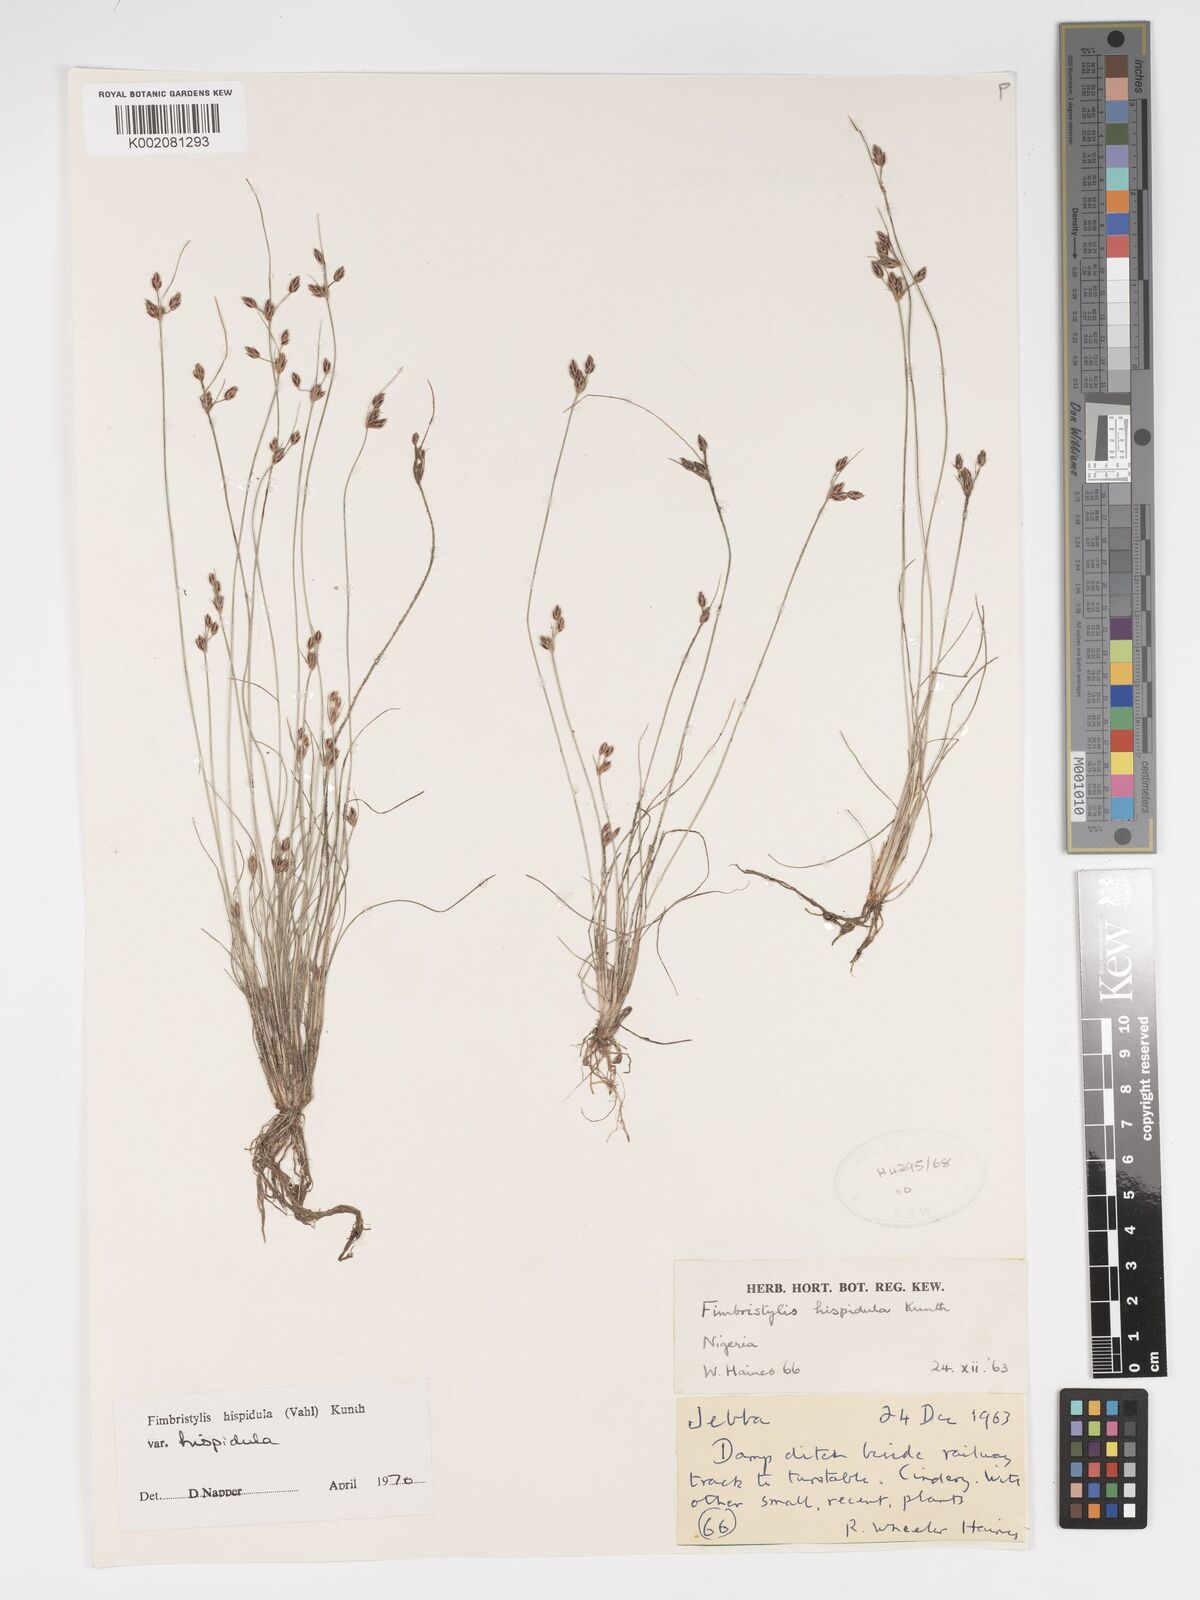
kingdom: Plantae
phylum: Tracheophyta
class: Liliopsida
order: Poales
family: Cyperaceae
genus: Bulbostylis
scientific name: Bulbostylis hispidula
